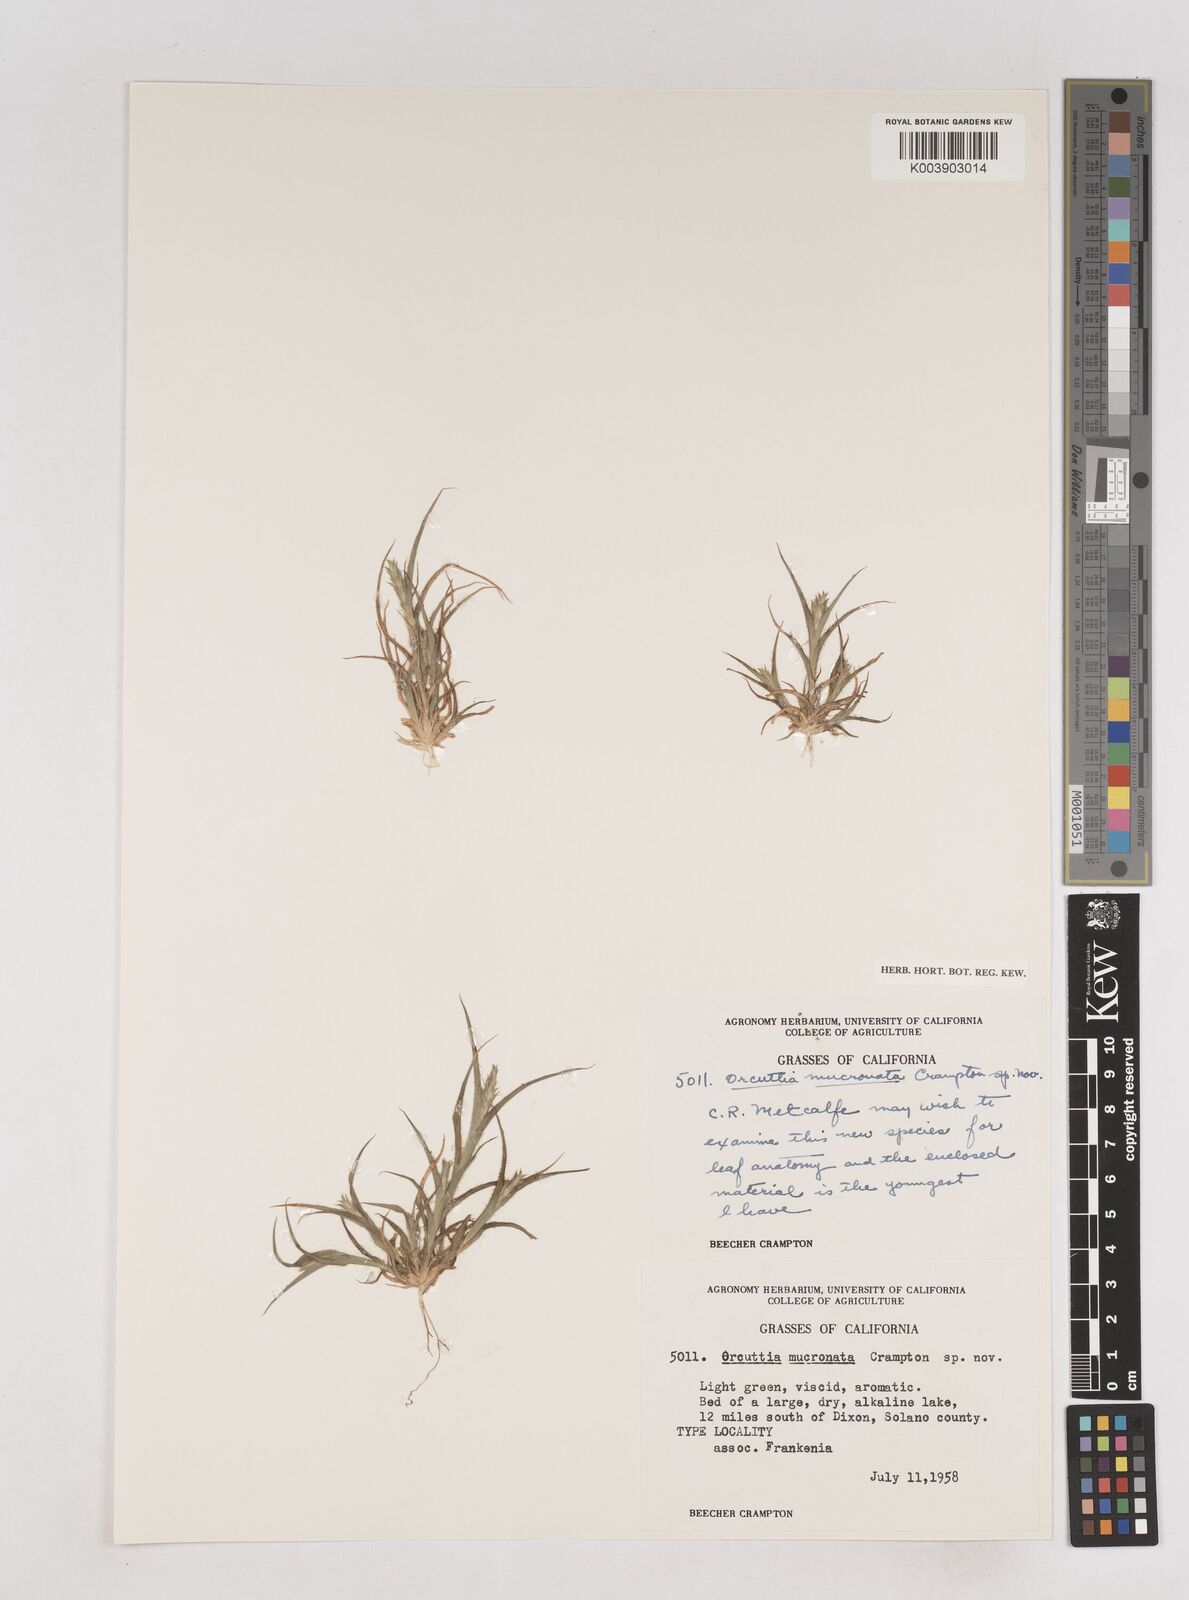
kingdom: Plantae
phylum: Tracheophyta
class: Liliopsida
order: Poales
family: Poaceae
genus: Tuctoria
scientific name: Tuctoria mucronata
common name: Solano grass
